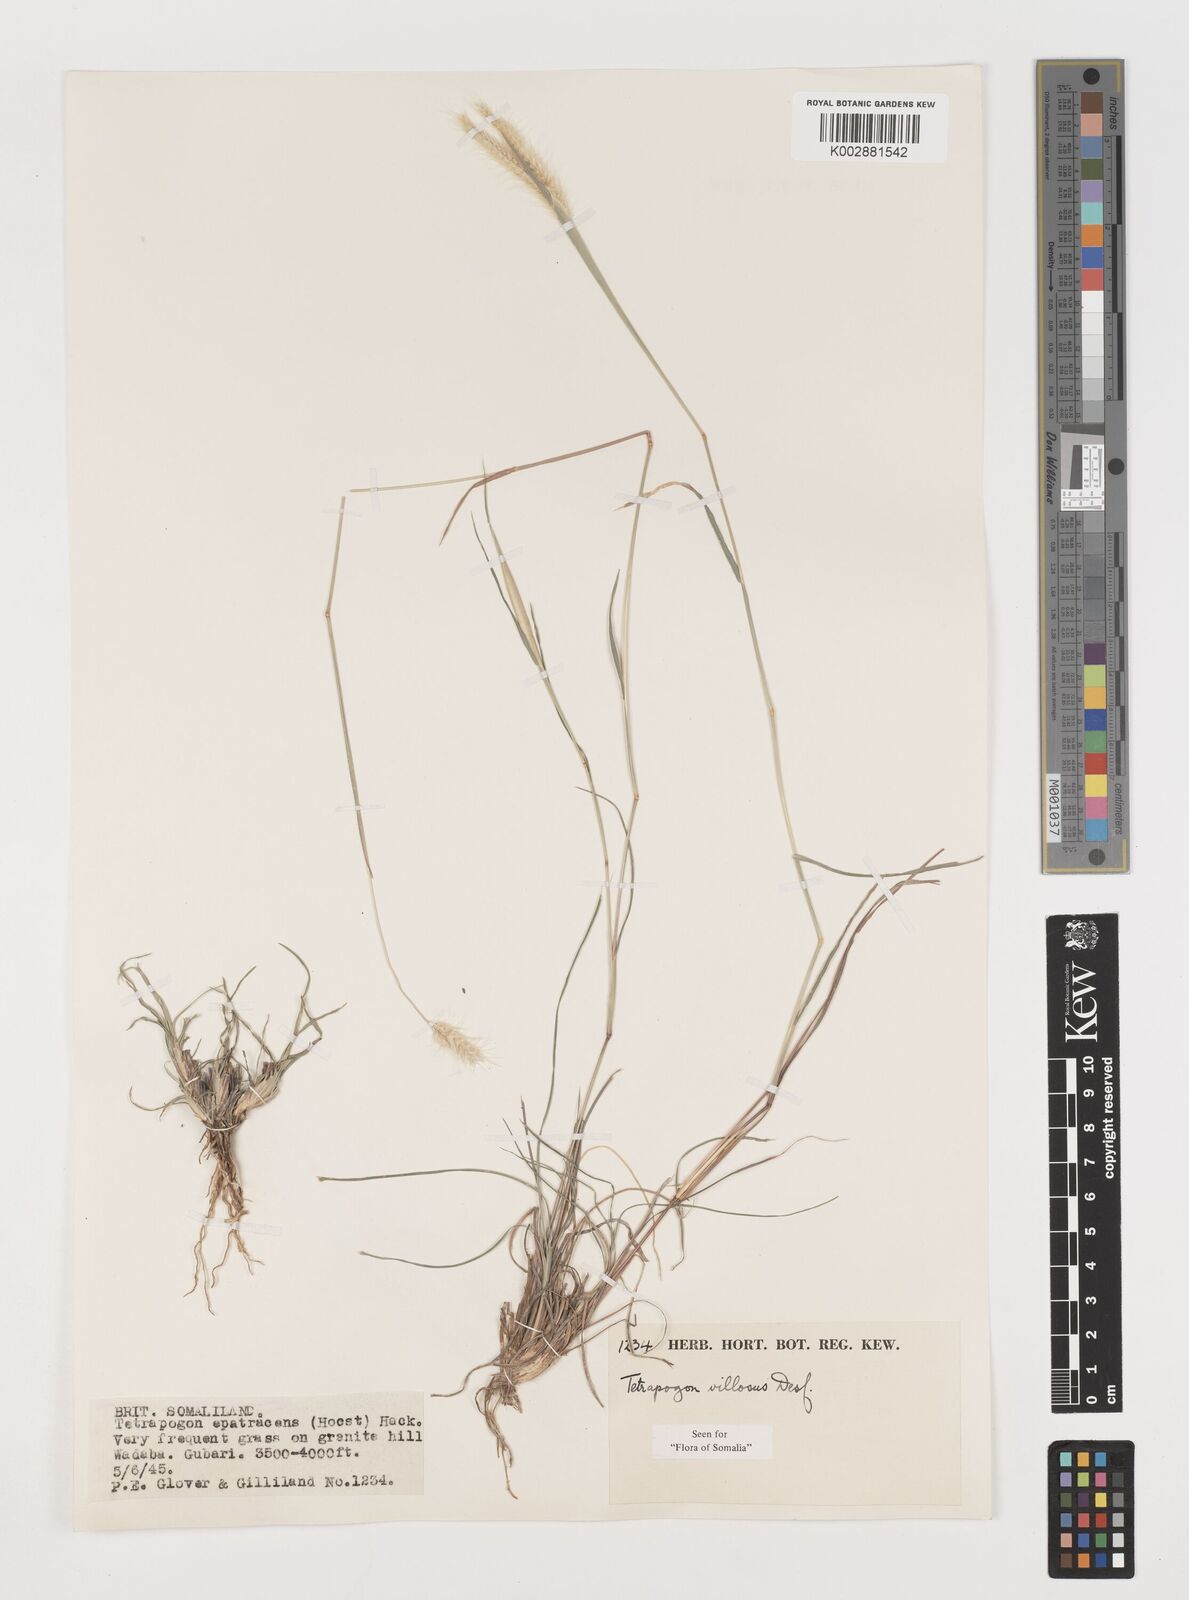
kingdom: Plantae
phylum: Tracheophyta
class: Liliopsida
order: Poales
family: Poaceae
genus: Tetrapogon
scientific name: Tetrapogon villosus
